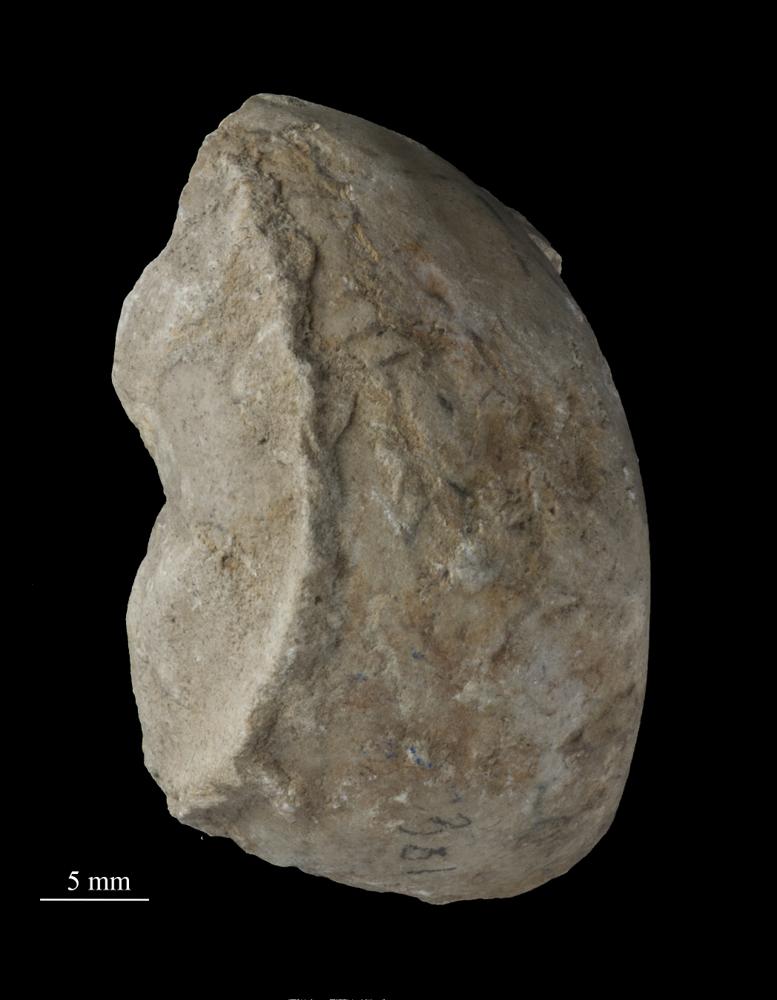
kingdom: Animalia
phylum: Mollusca
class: Gastropoda
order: Pleurotomariida
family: Murchisoniidae
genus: Murchisonia
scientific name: Murchisonia insignis
